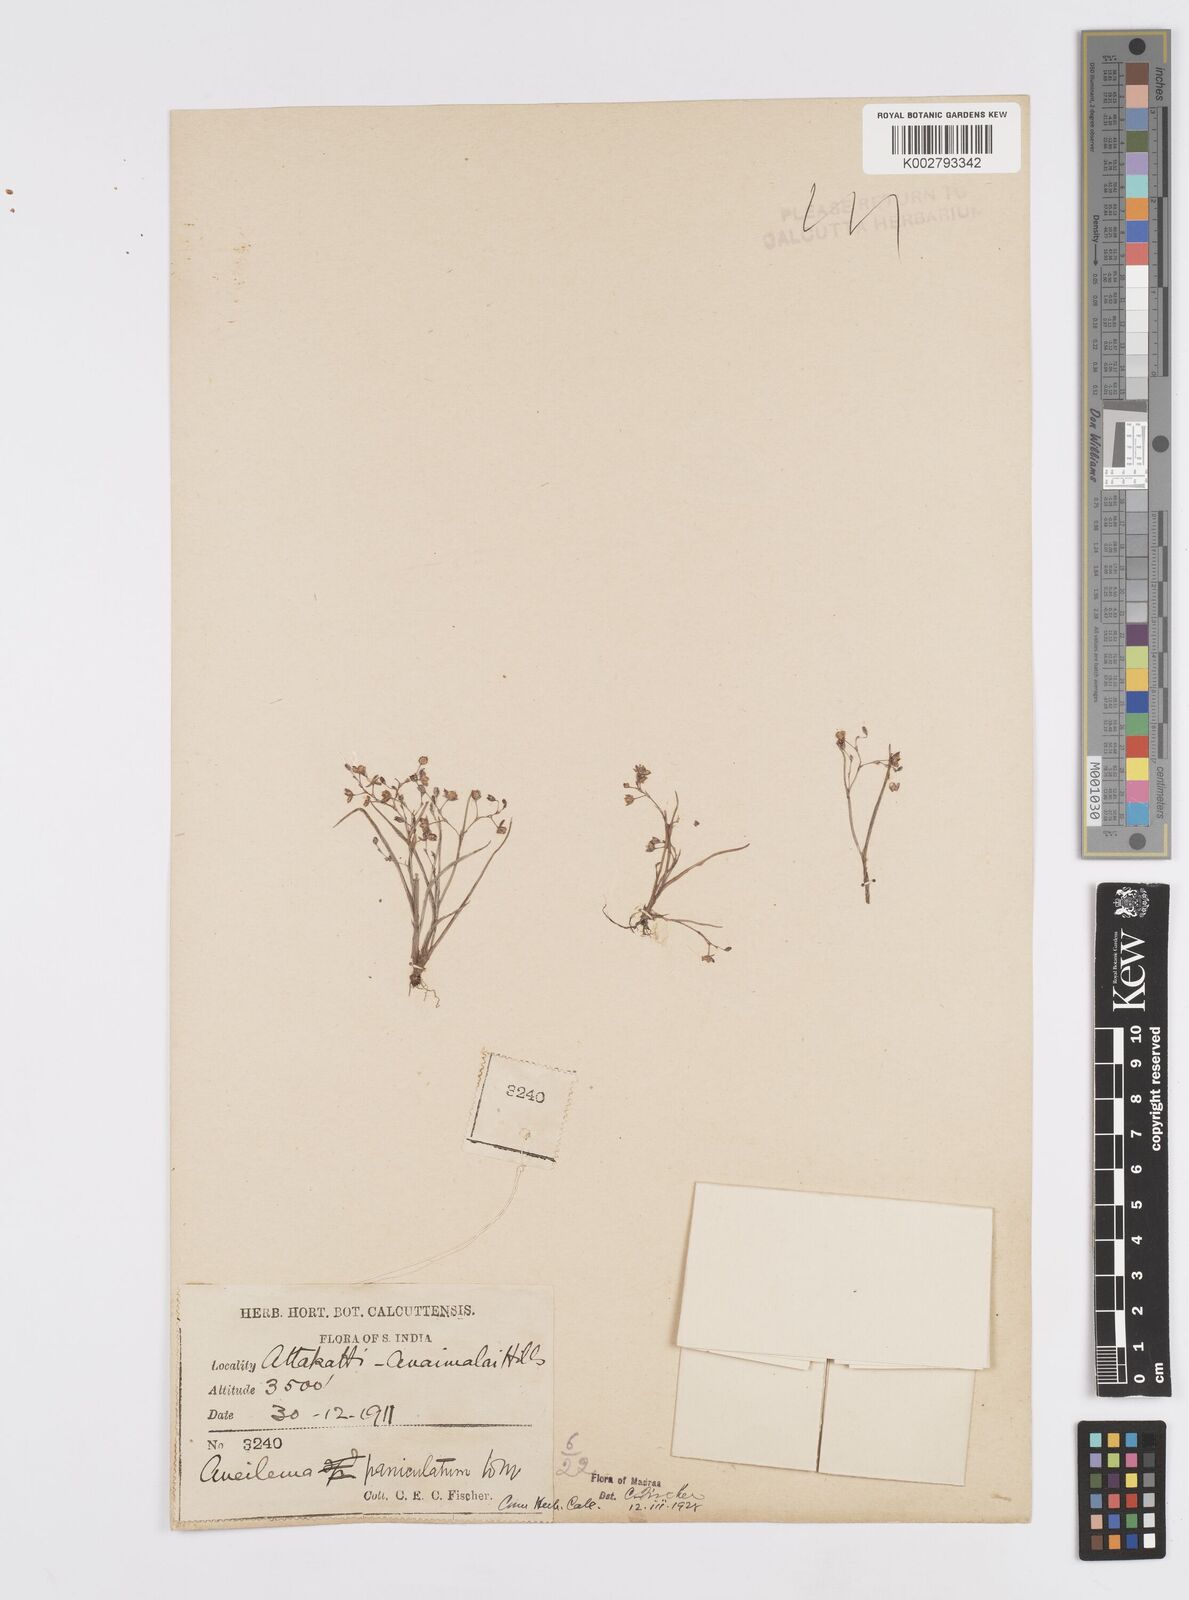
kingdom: Plantae
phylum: Tracheophyta
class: Liliopsida
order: Commelinales
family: Commelinaceae
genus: Murdannia
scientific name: Murdannia semiteres
